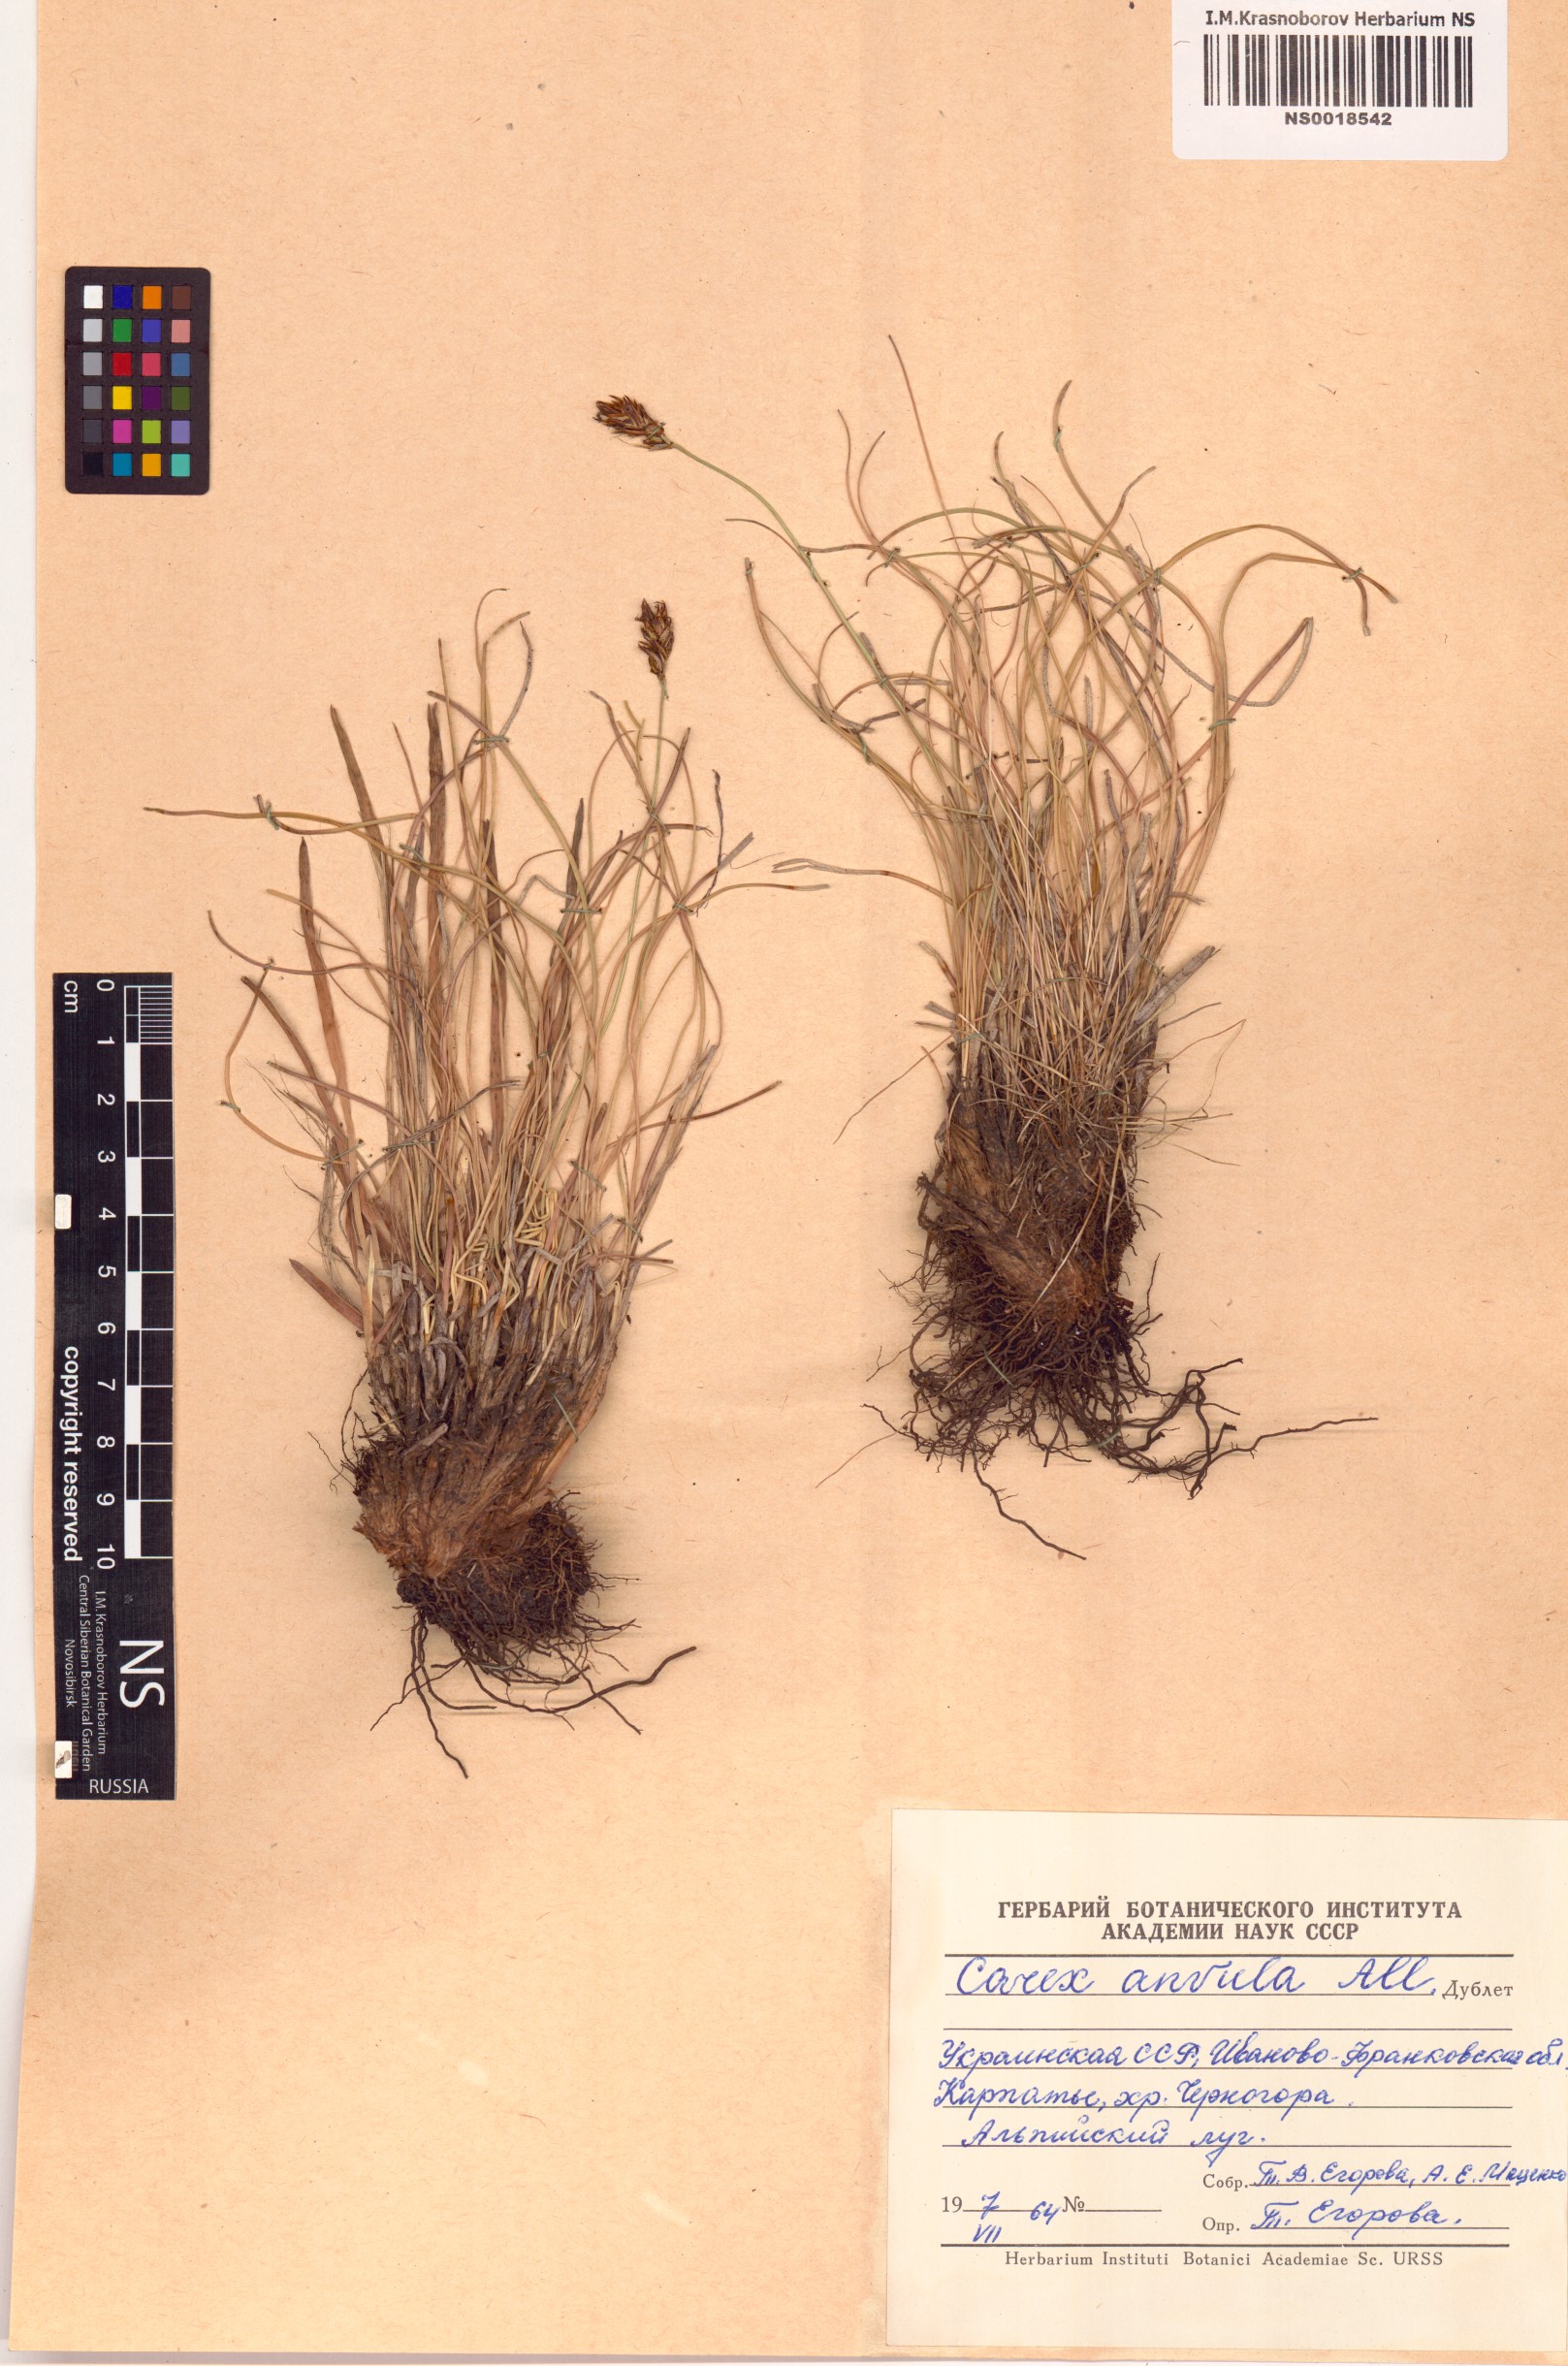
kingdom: Plantae
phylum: Tracheophyta
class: Liliopsida
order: Poales
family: Cyperaceae
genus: Carex
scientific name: Carex
